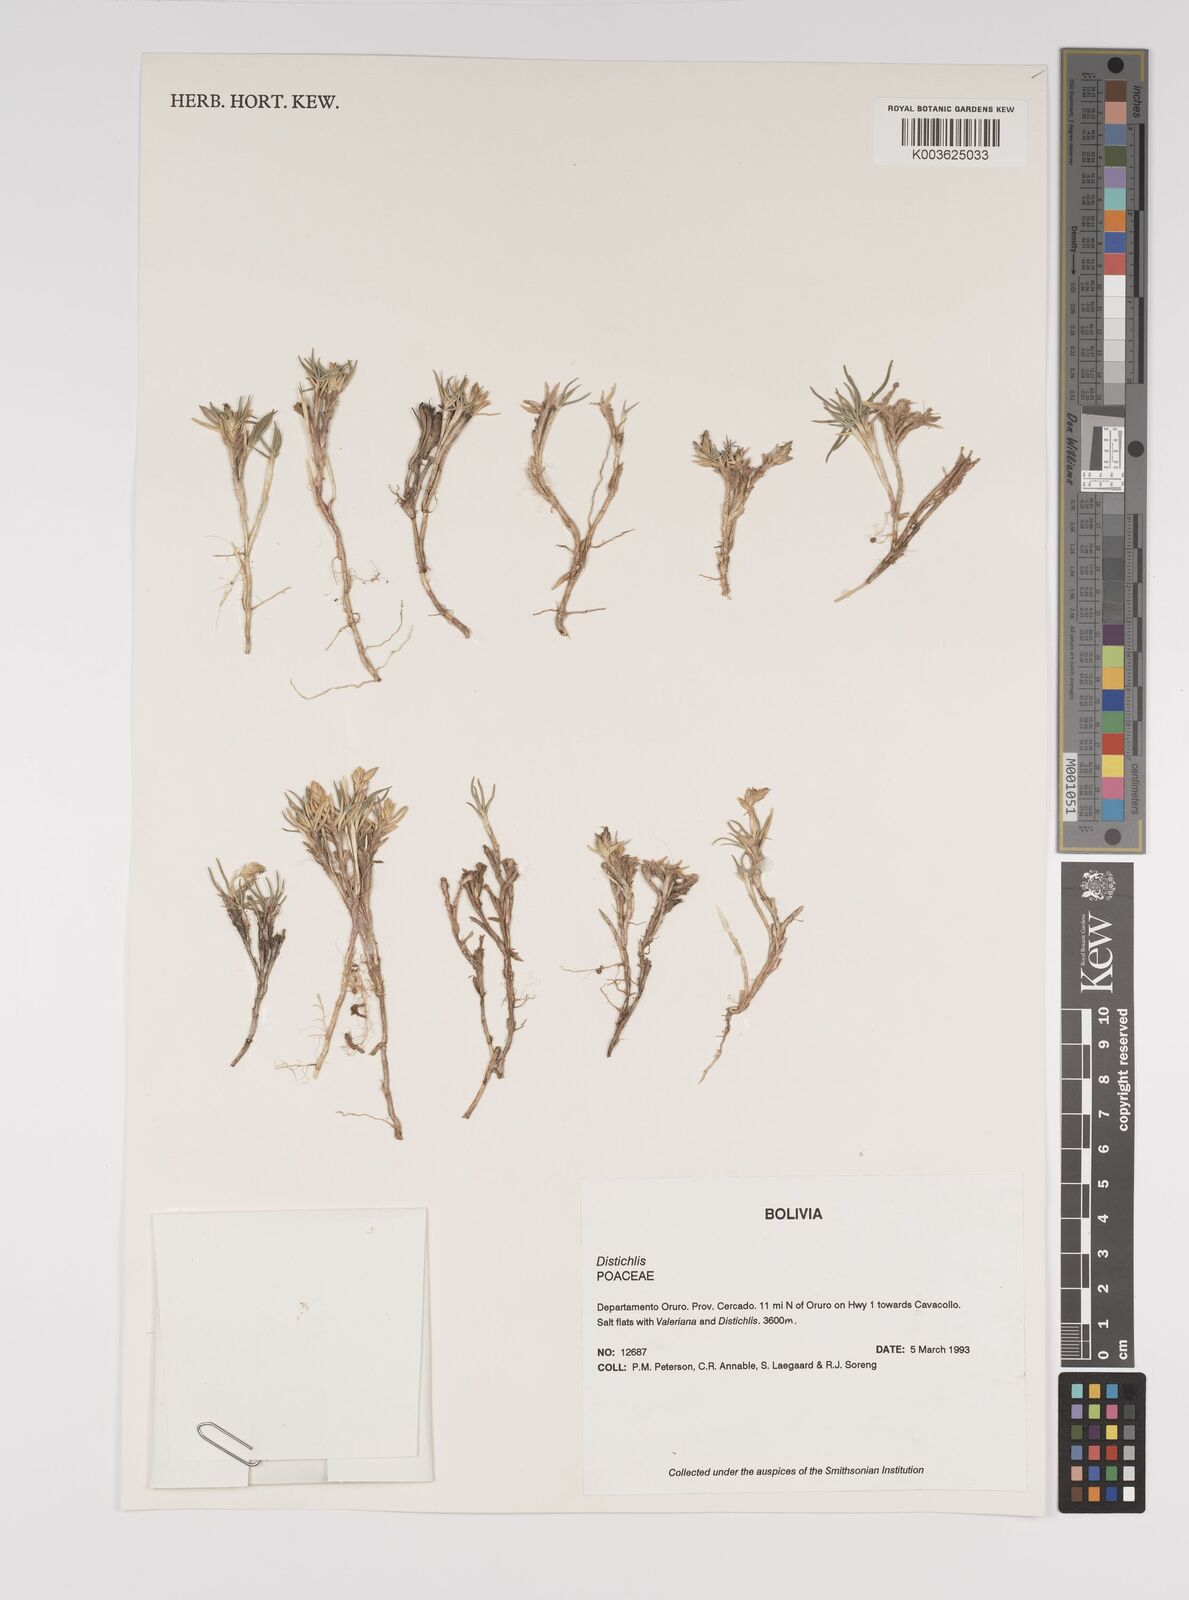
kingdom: Plantae
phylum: Tracheophyta
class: Liliopsida
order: Poales
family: Poaceae
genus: Distichlis
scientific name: Distichlis humilis
